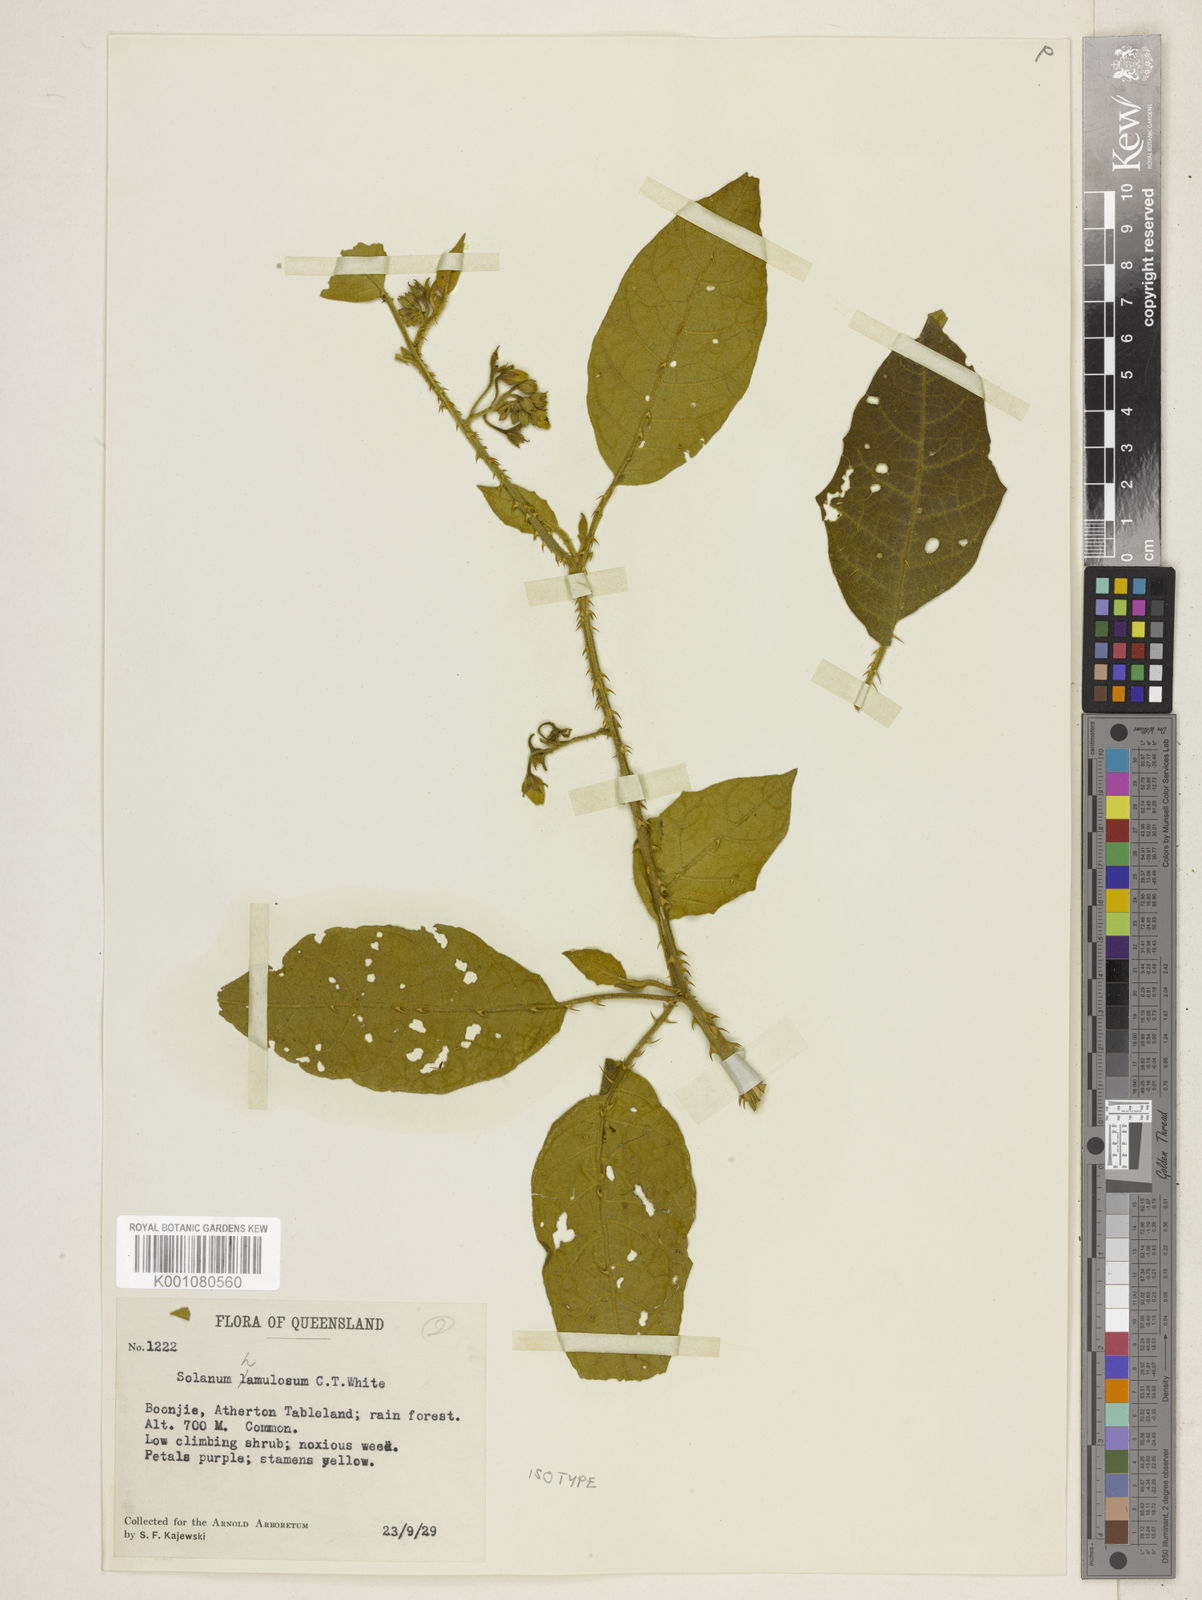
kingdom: Plantae
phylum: Tracheophyta
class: Magnoliopsida
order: Solanales
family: Solanaceae
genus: Solanum
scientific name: Solanum hamulosum
